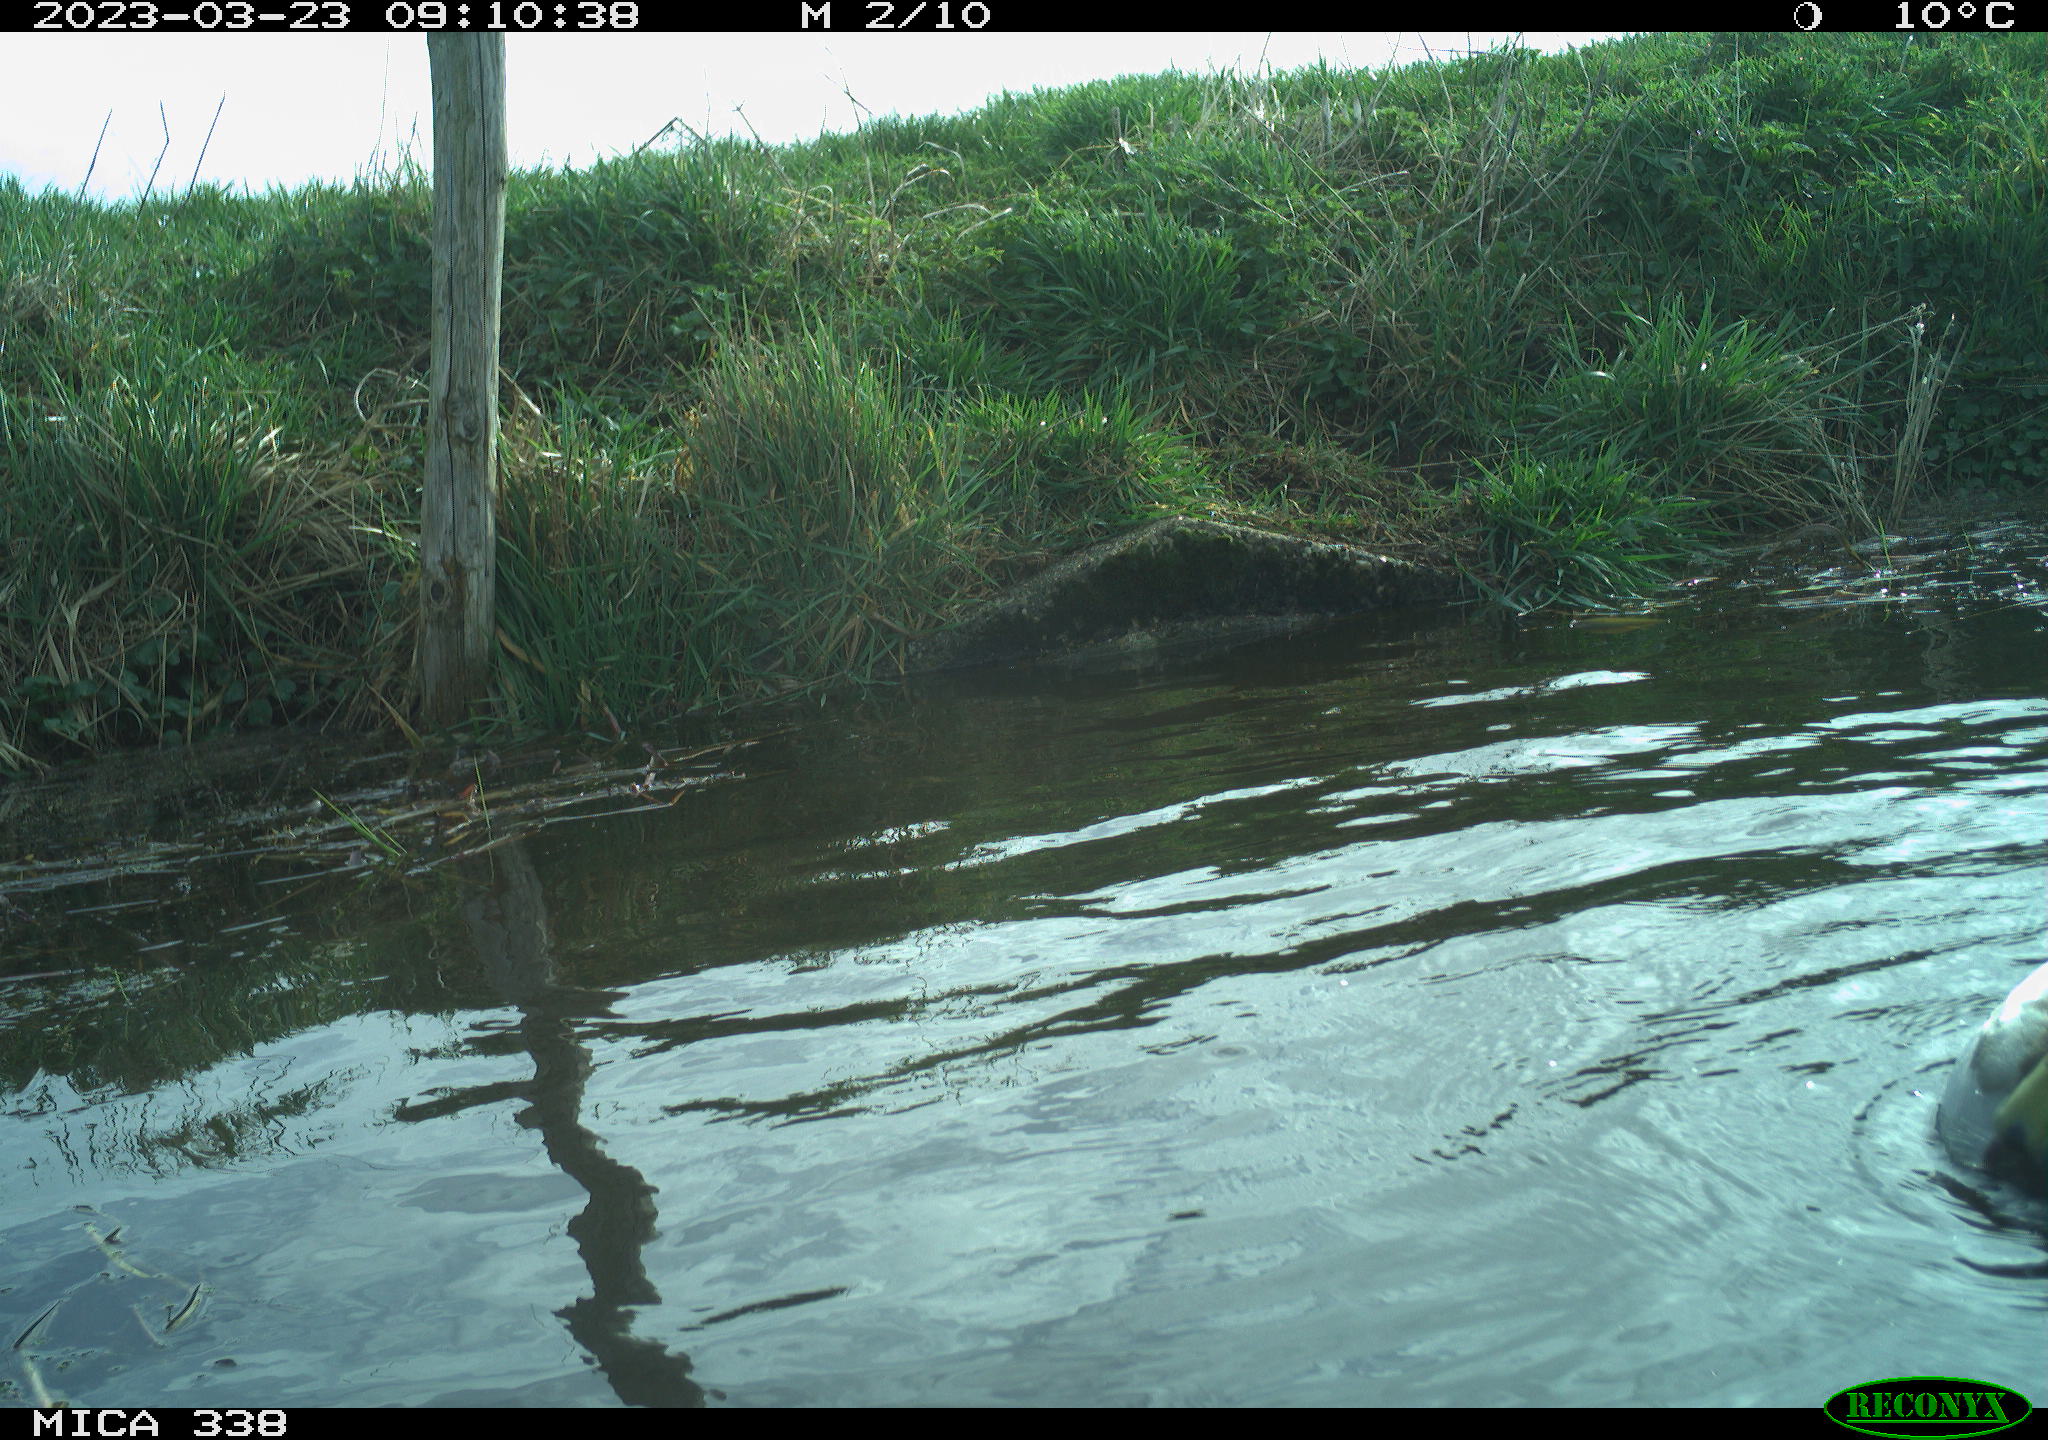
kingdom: Animalia
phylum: Chordata
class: Aves
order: Anseriformes
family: Anatidae
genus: Anas
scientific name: Anas platyrhynchos
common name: Mallard
